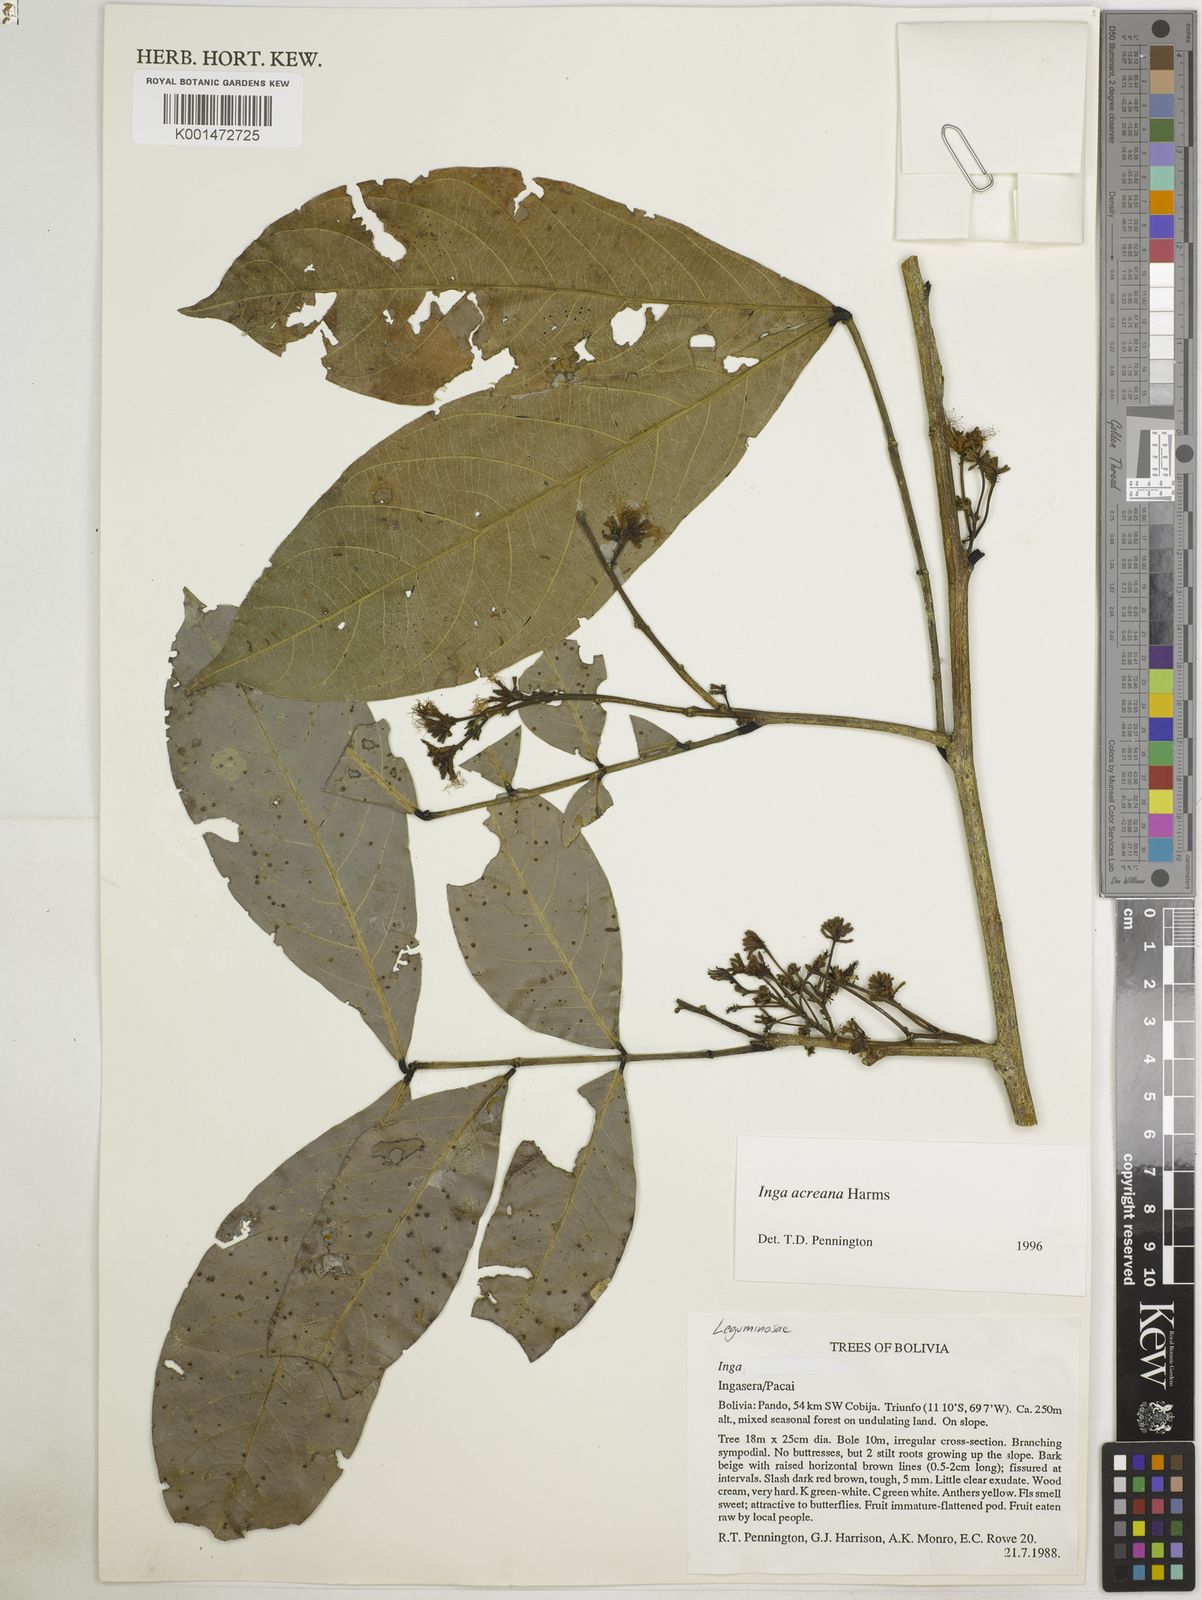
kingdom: Plantae
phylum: Tracheophyta
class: Magnoliopsida
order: Fabales
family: Fabaceae
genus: Inga
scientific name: Inga acreana
